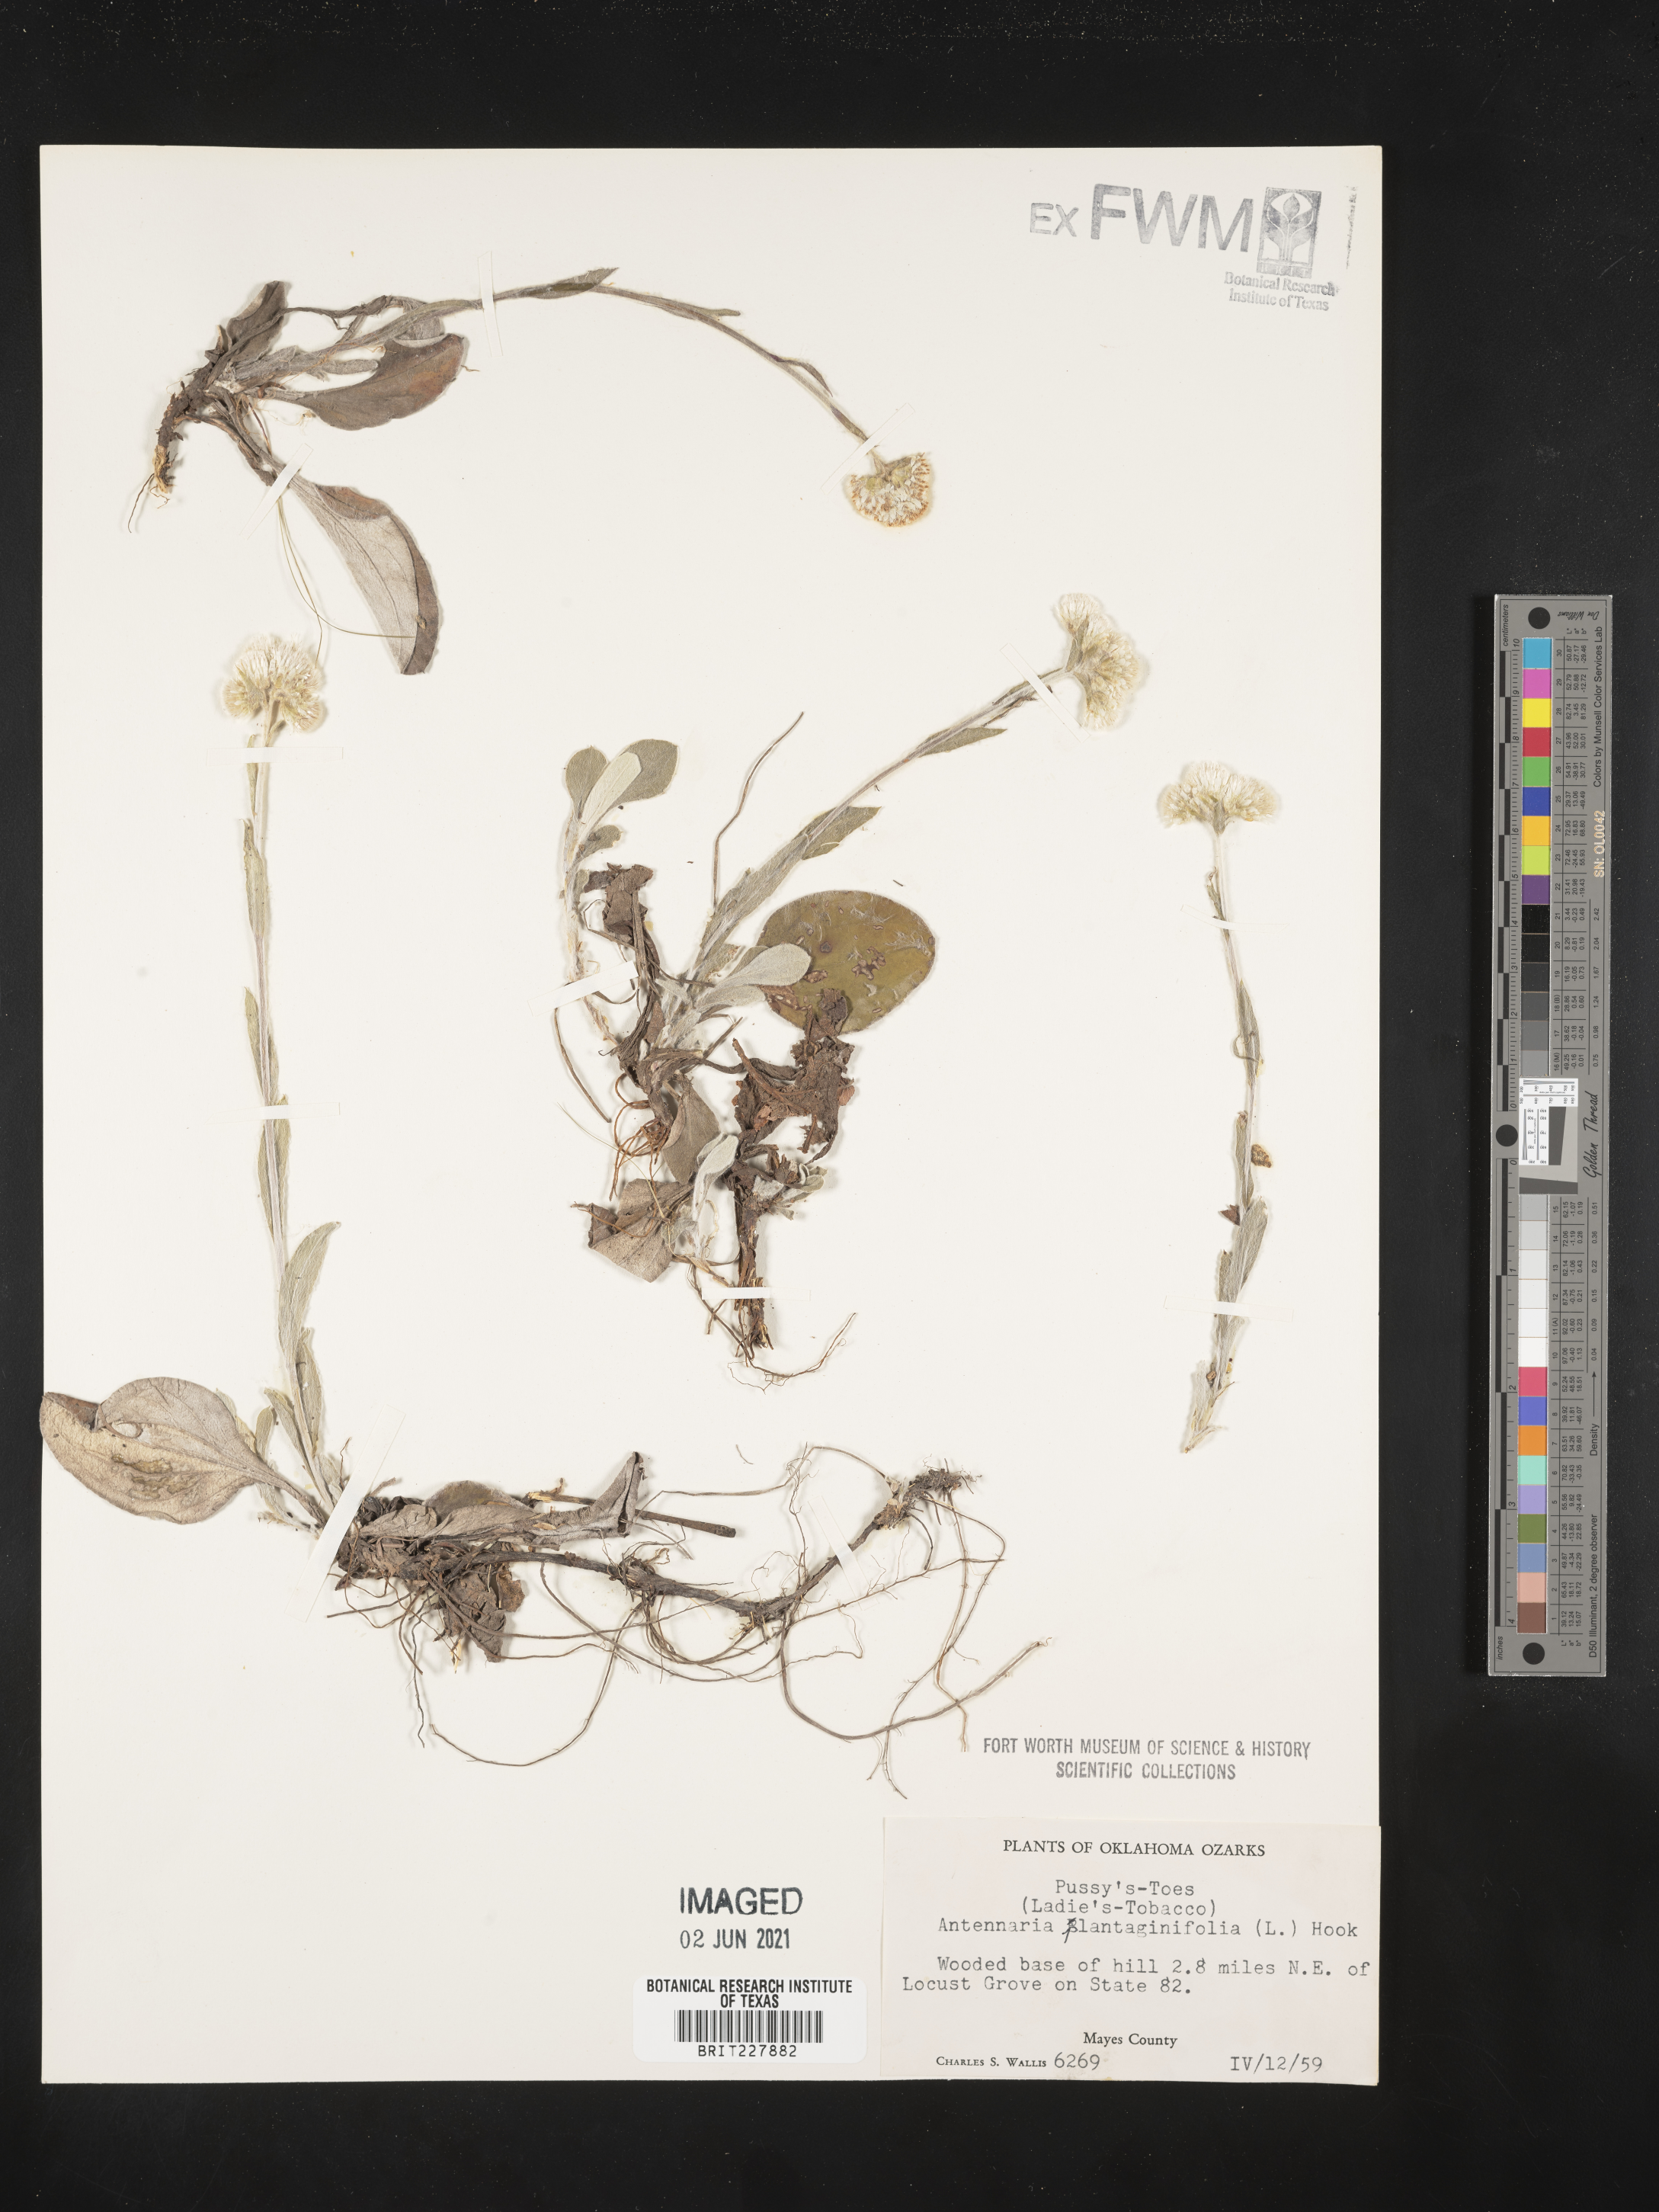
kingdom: Plantae
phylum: Tracheophyta
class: Magnoliopsida
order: Asterales
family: Asteraceae
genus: Antennaria
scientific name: Antennaria plantaginifolia
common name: Plantain-leaved pussytoes
